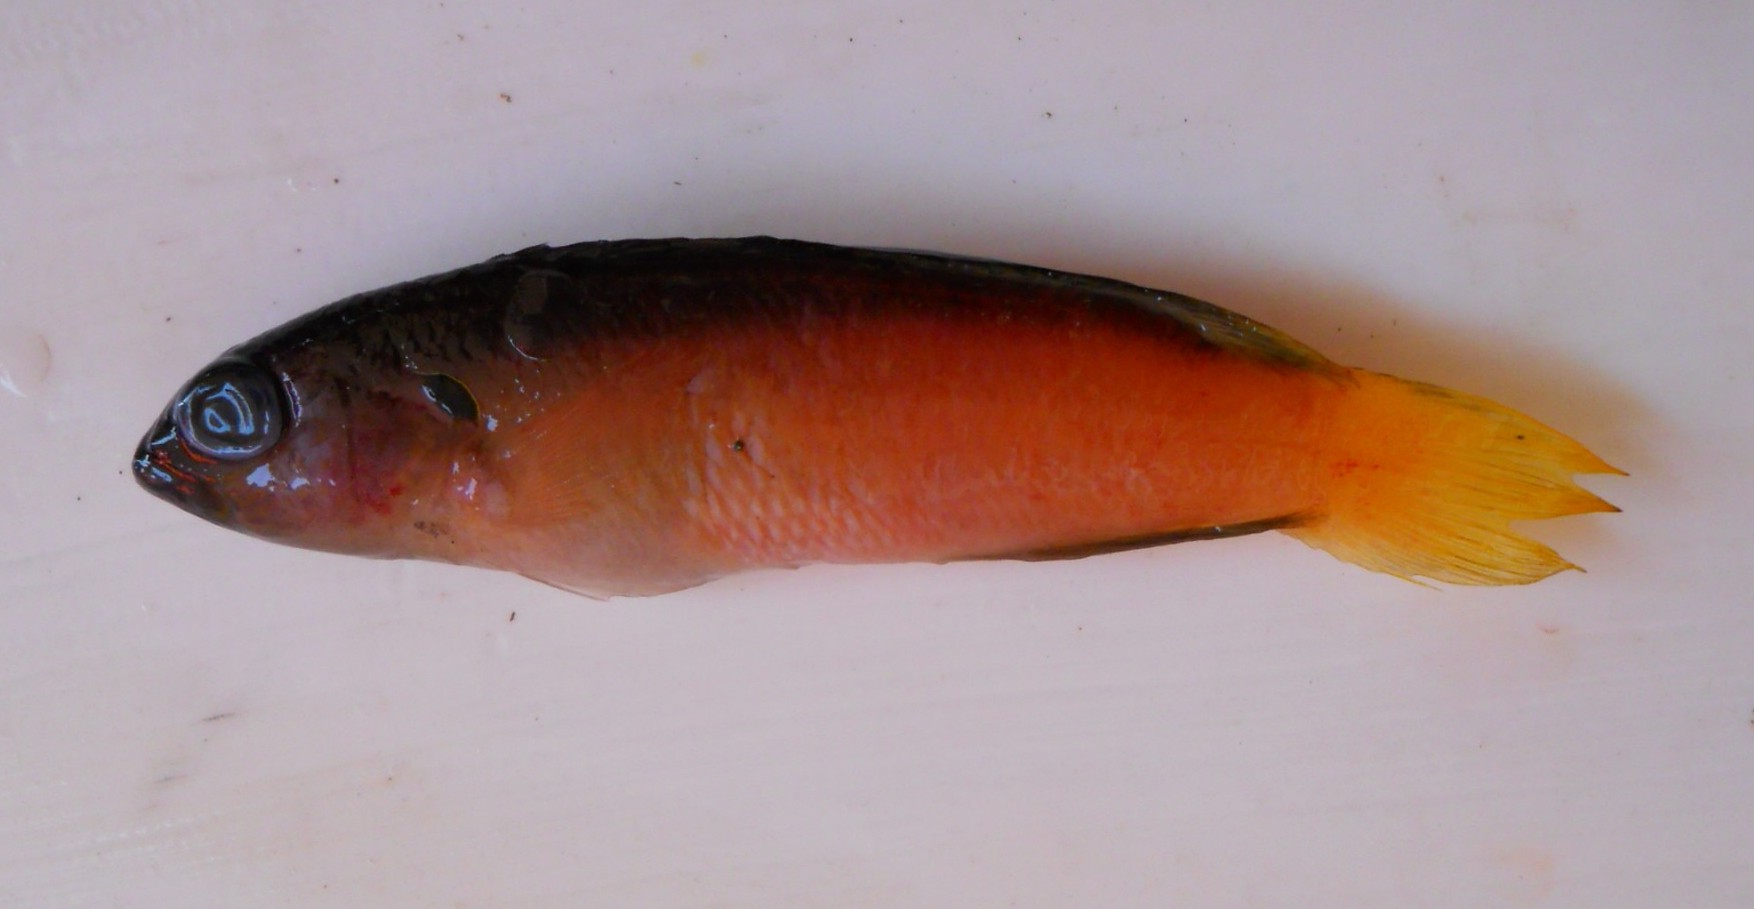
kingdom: Animalia
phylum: Chordata
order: Perciformes
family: Pseudochromidae
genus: Pseudochromis
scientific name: Pseudochromis pesi
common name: Pale dottyback
